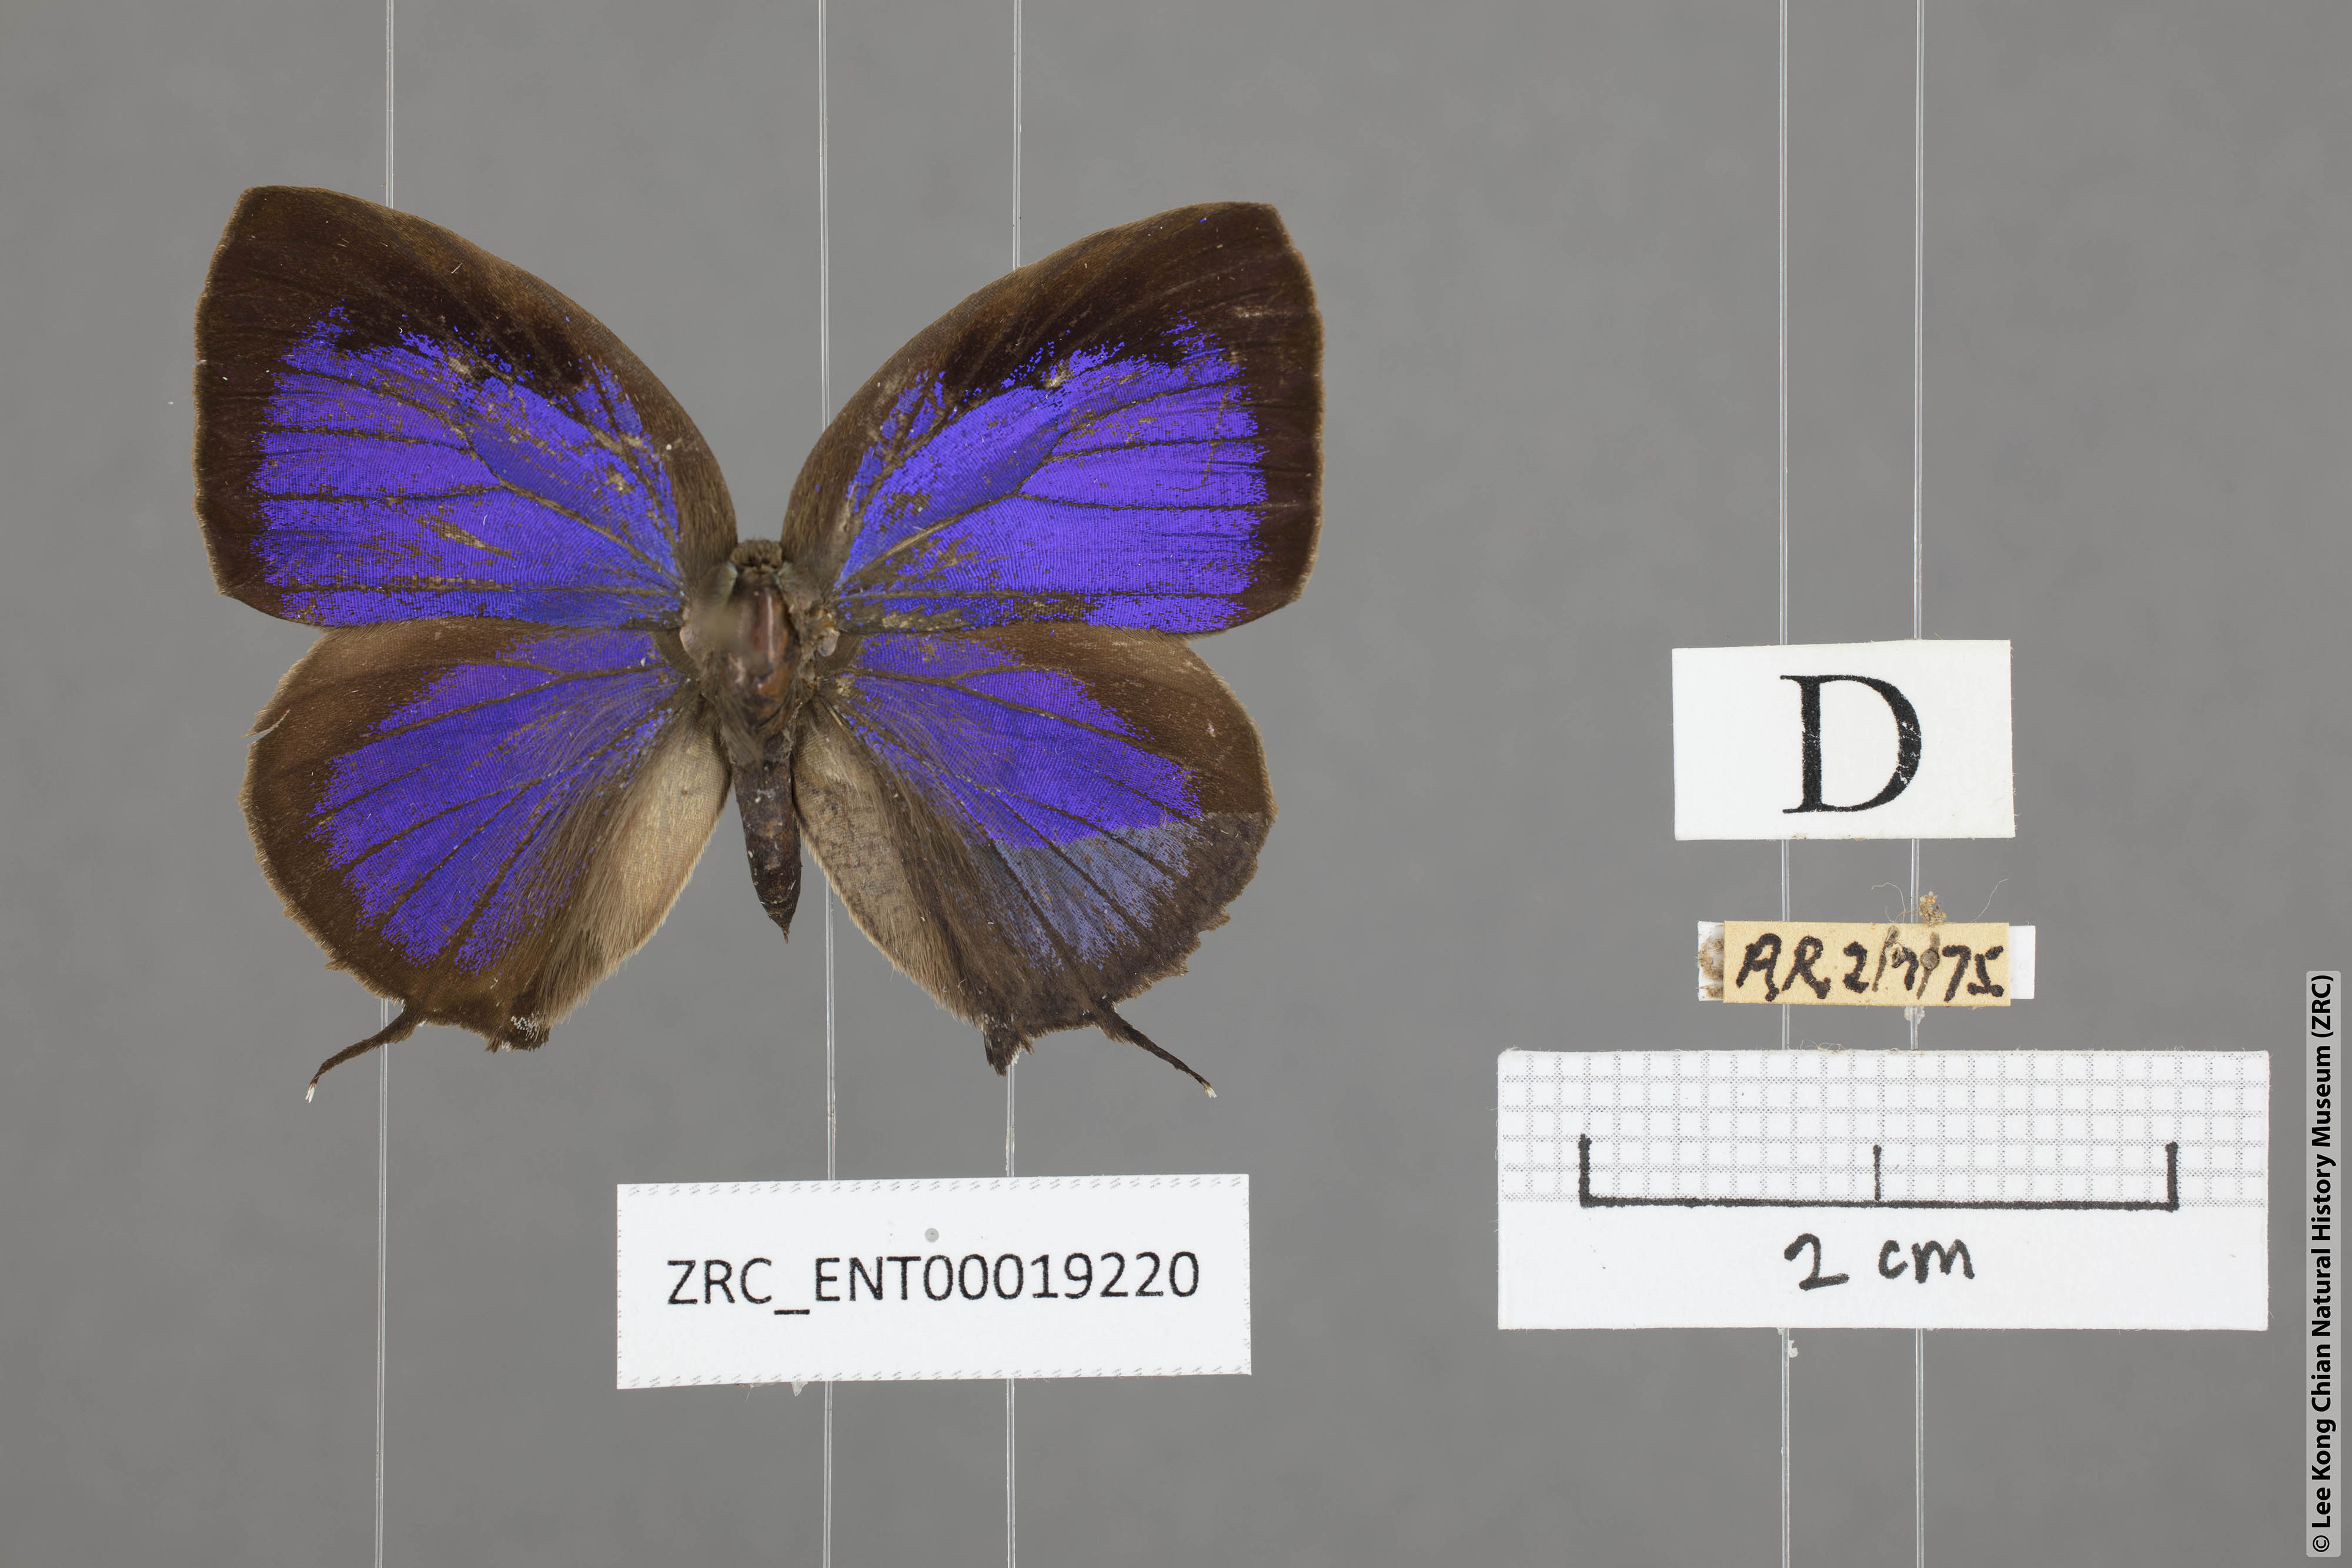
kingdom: Animalia
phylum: Arthropoda
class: Insecta
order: Lepidoptera
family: Lycaenidae
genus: Arhopala
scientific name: Arhopala athada
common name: Vinous oakblue
